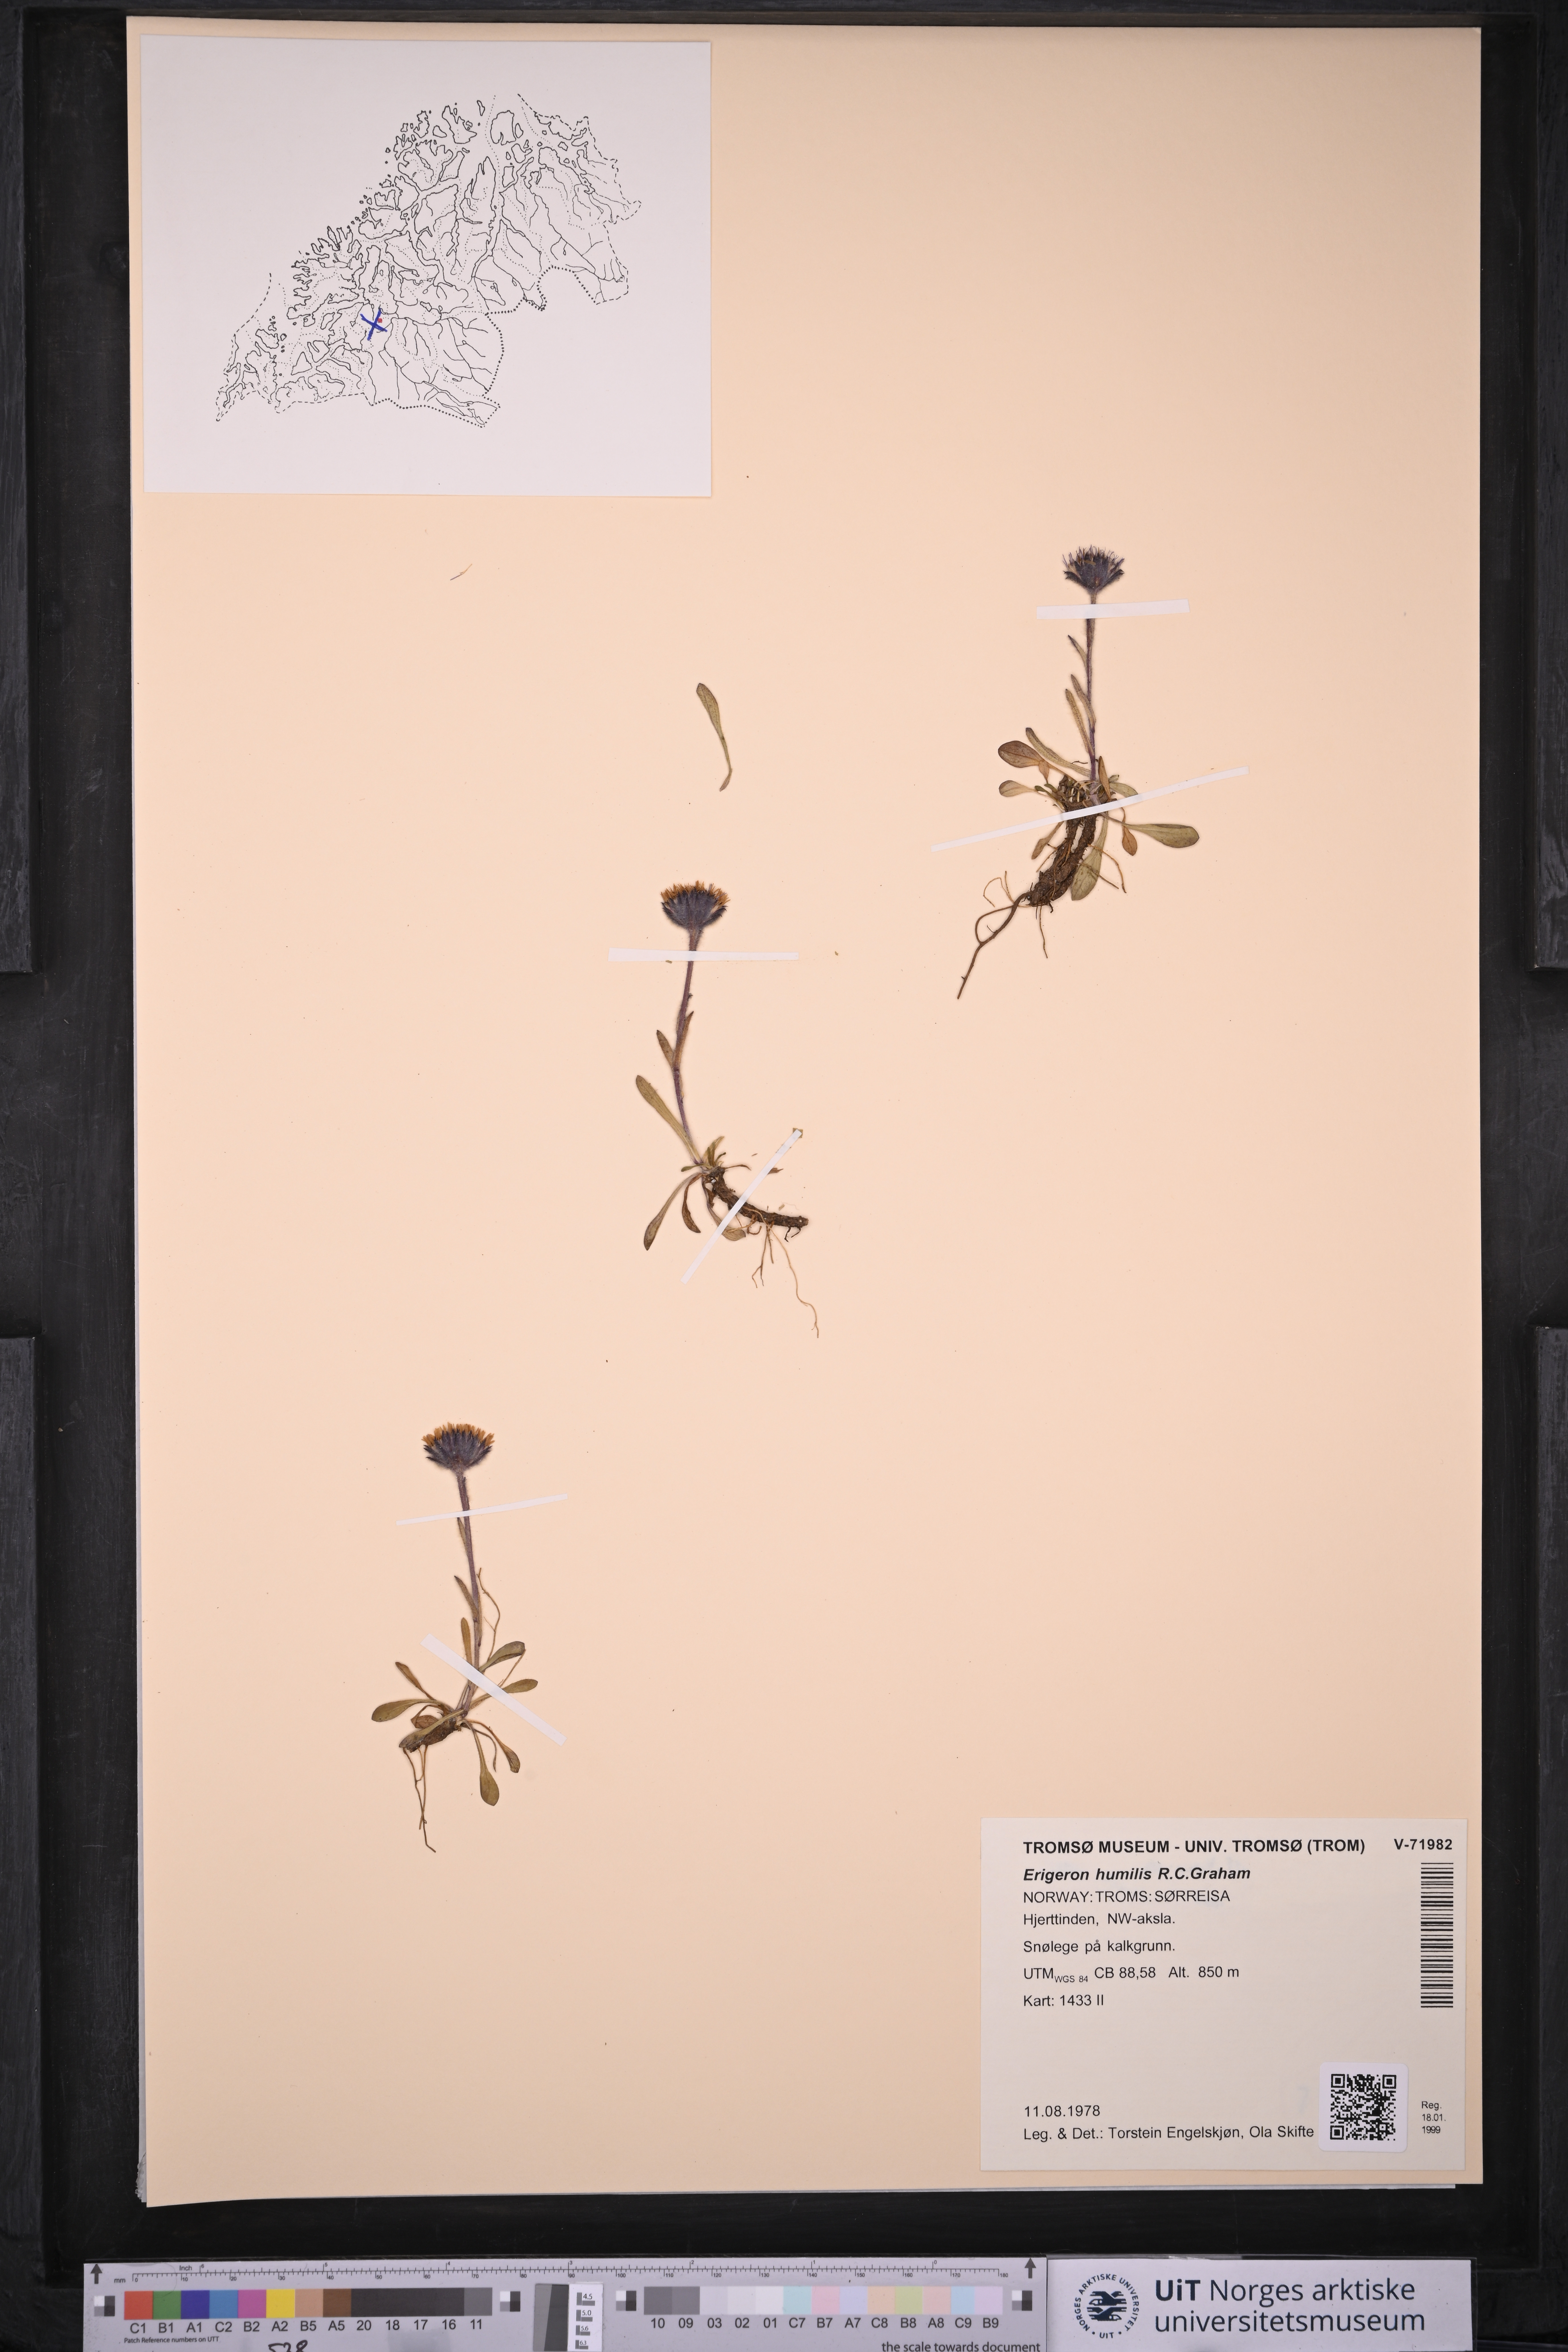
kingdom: Plantae
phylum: Tracheophyta
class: Magnoliopsida
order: Asterales
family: Asteraceae
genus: Erigeron
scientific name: Erigeron humilis
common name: Arctic-alpine fleabane
